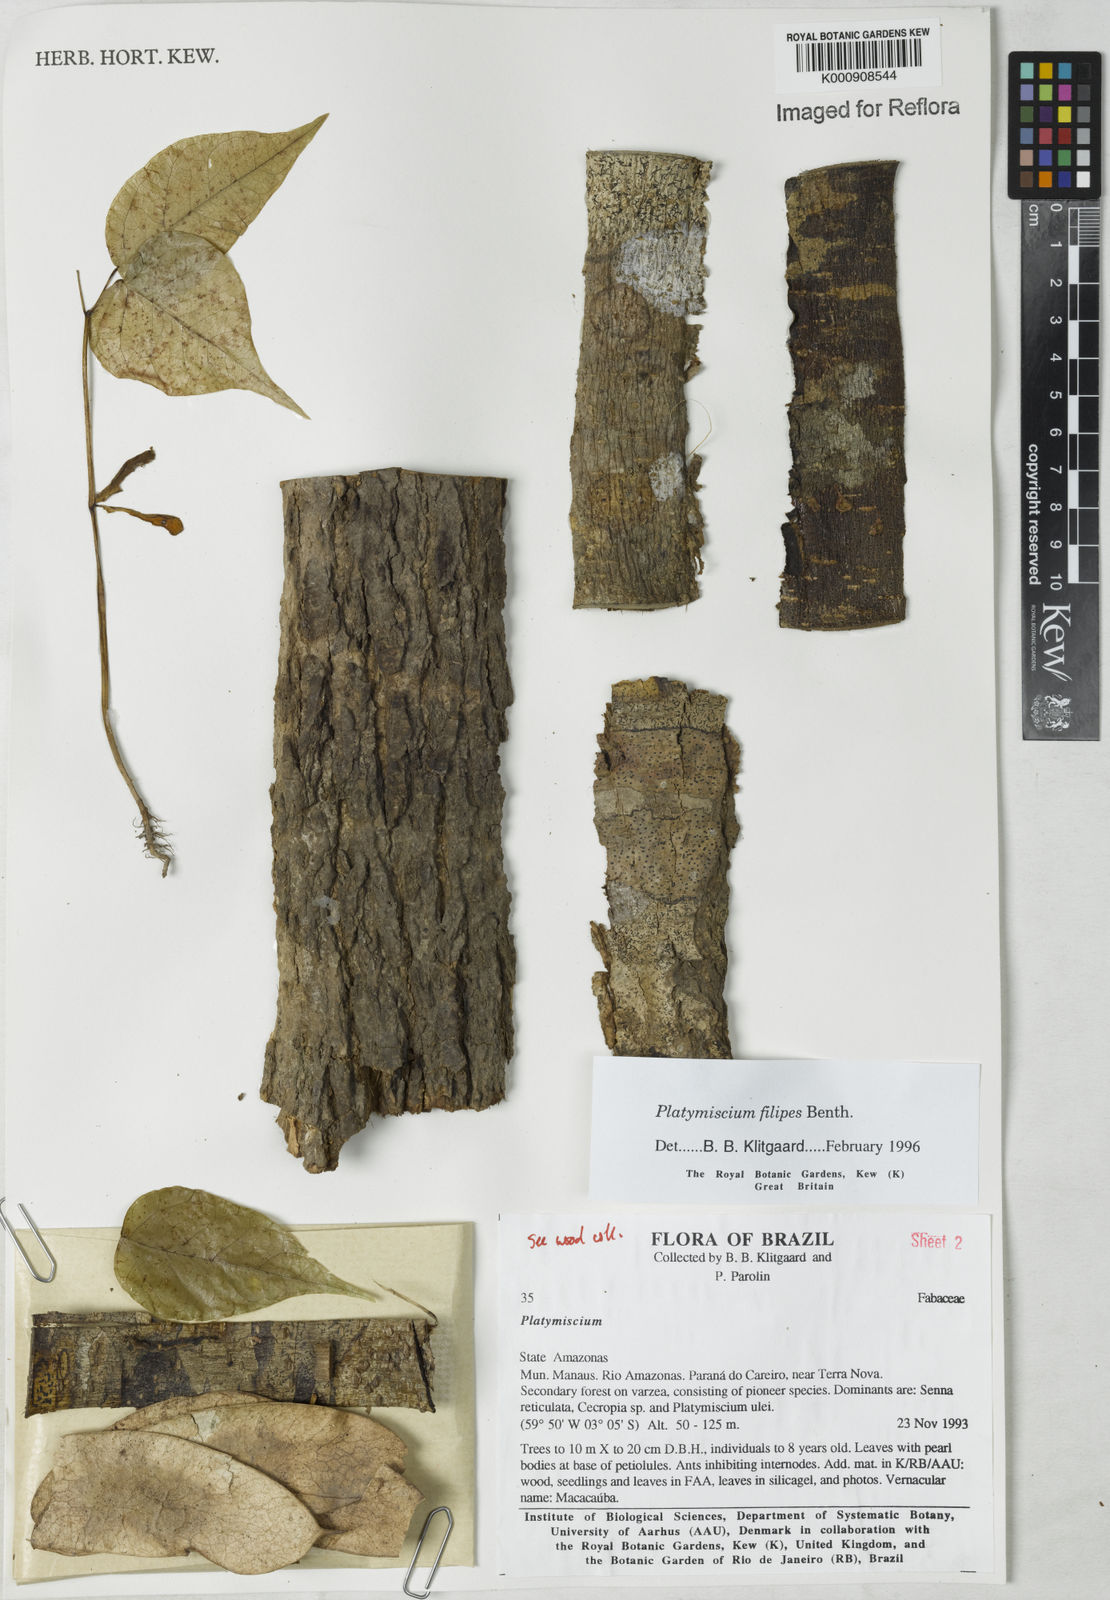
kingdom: Plantae
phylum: Tracheophyta
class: Magnoliopsida
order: Fabales
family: Fabaceae
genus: Platymiscium
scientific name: Platymiscium filipes
